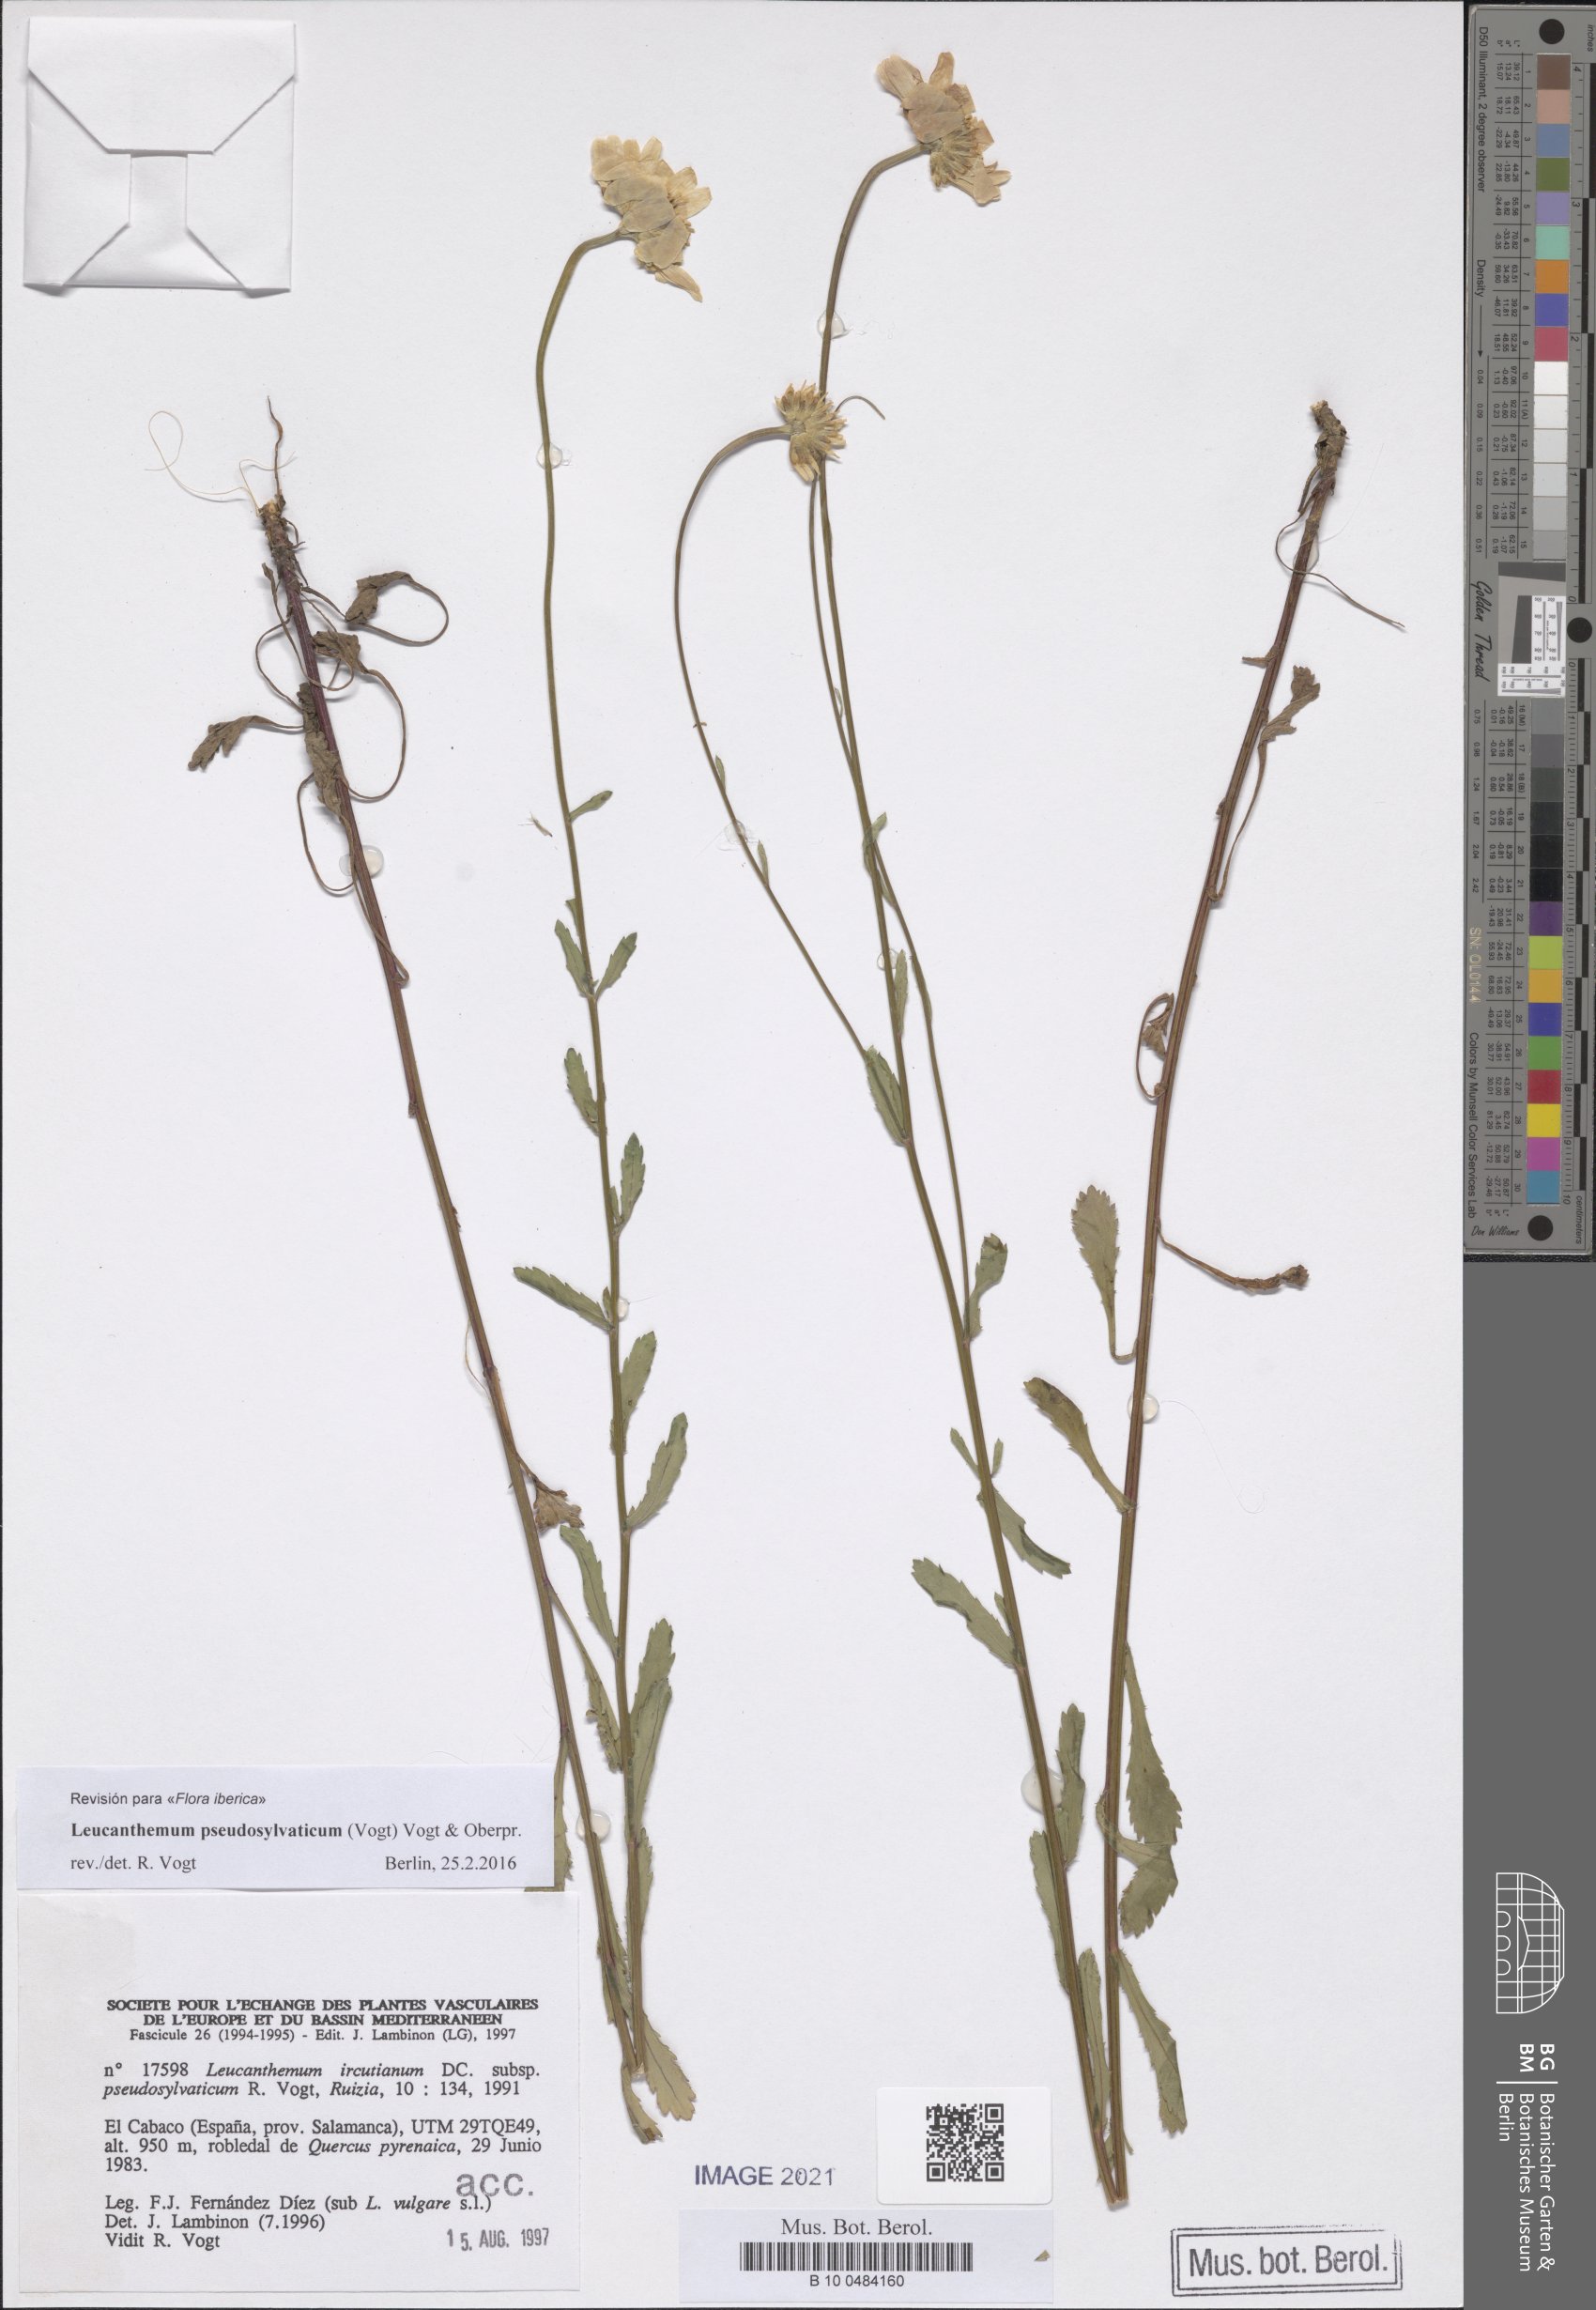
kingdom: Plantae
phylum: Tracheophyta
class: Magnoliopsida
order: Asterales
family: Asteraceae
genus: Leucanthemum
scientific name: Leucanthemum pseudosylvaticum
